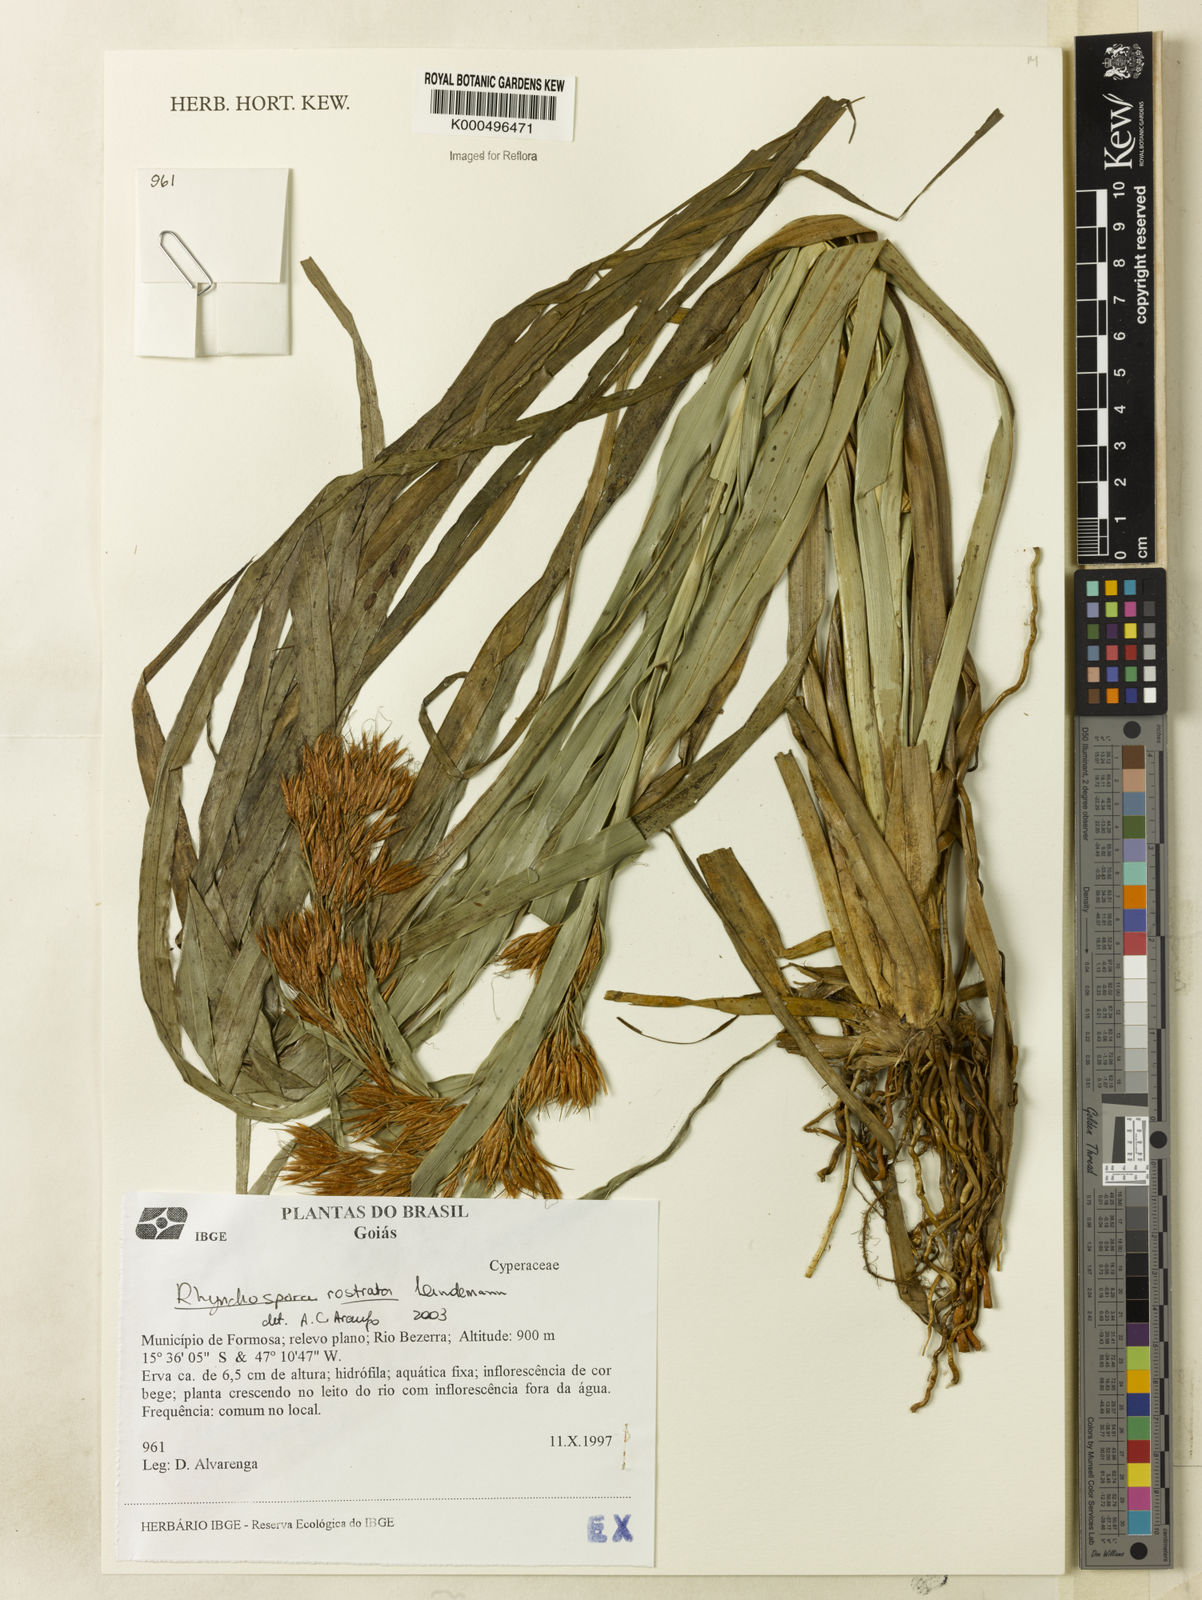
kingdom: Plantae
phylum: Tracheophyta
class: Liliopsida
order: Poales
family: Cyperaceae
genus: Rhynchospora
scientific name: Rhynchospora rostrata
